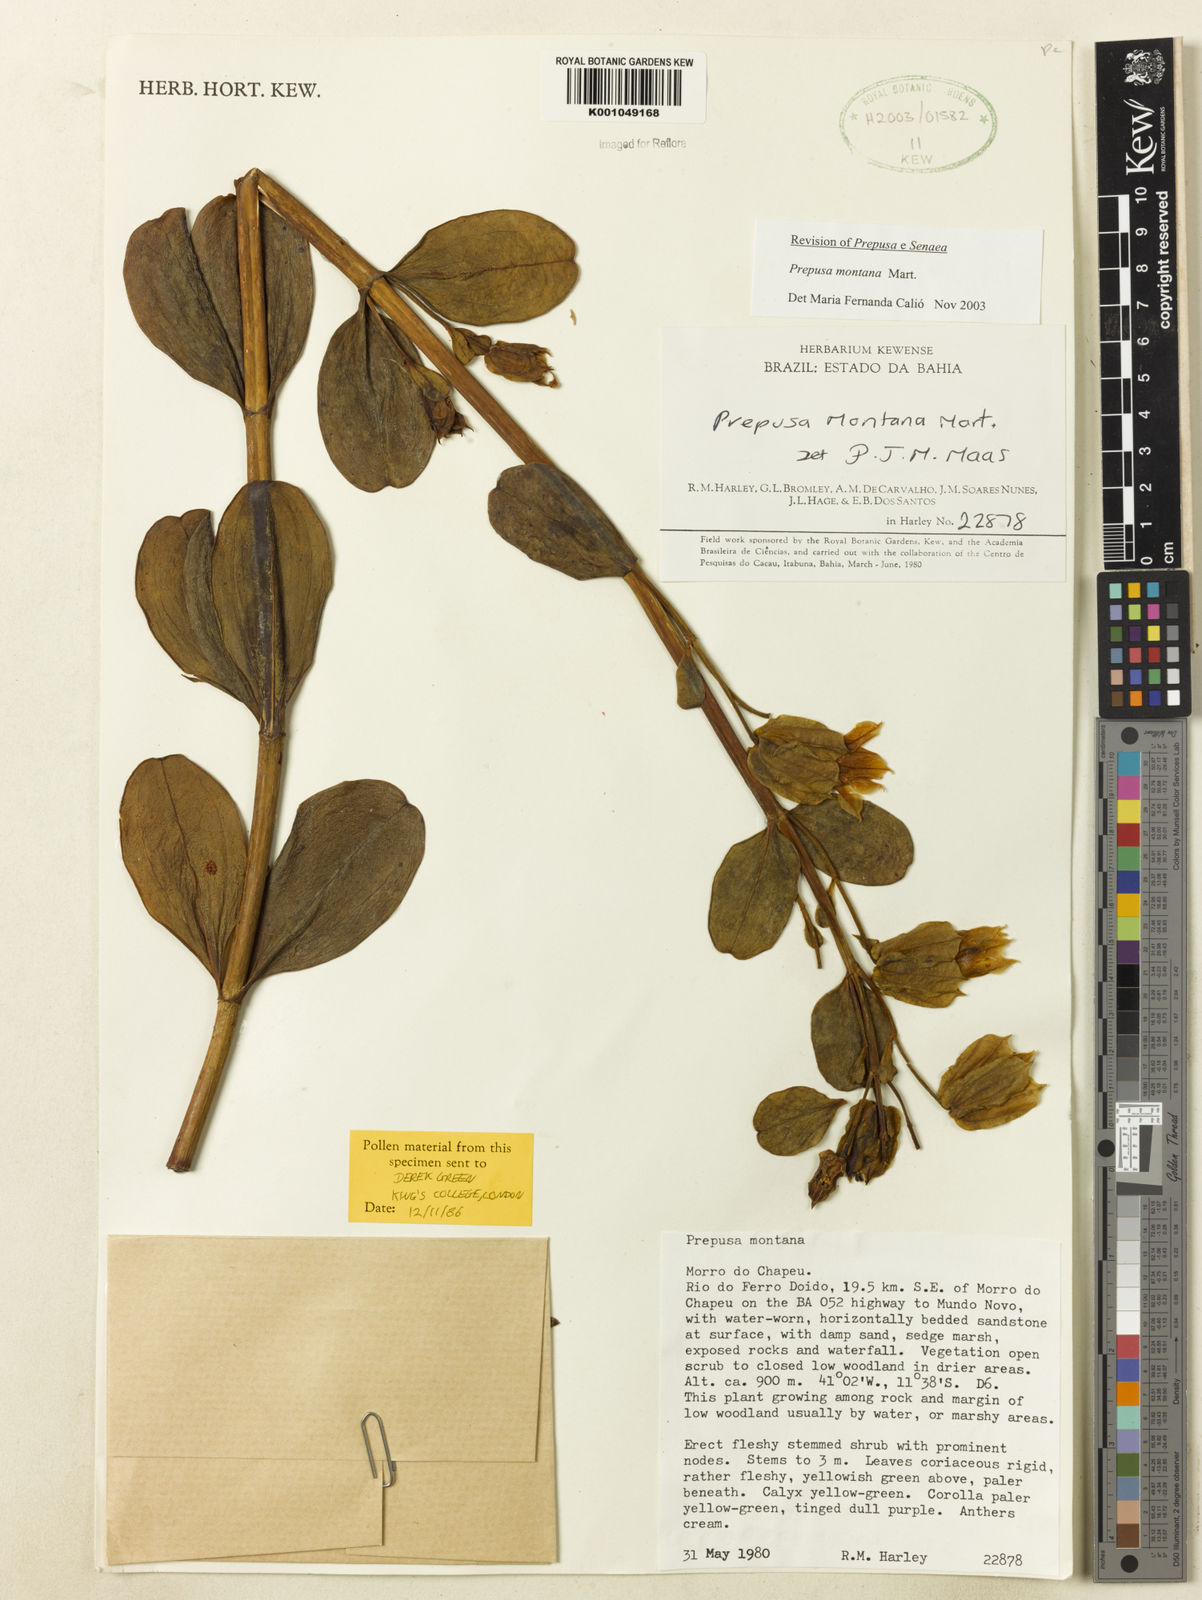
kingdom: Plantae
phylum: Tracheophyta
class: Magnoliopsida
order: Gentianales
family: Gentianaceae
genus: Prepusa
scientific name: Prepusa montana
